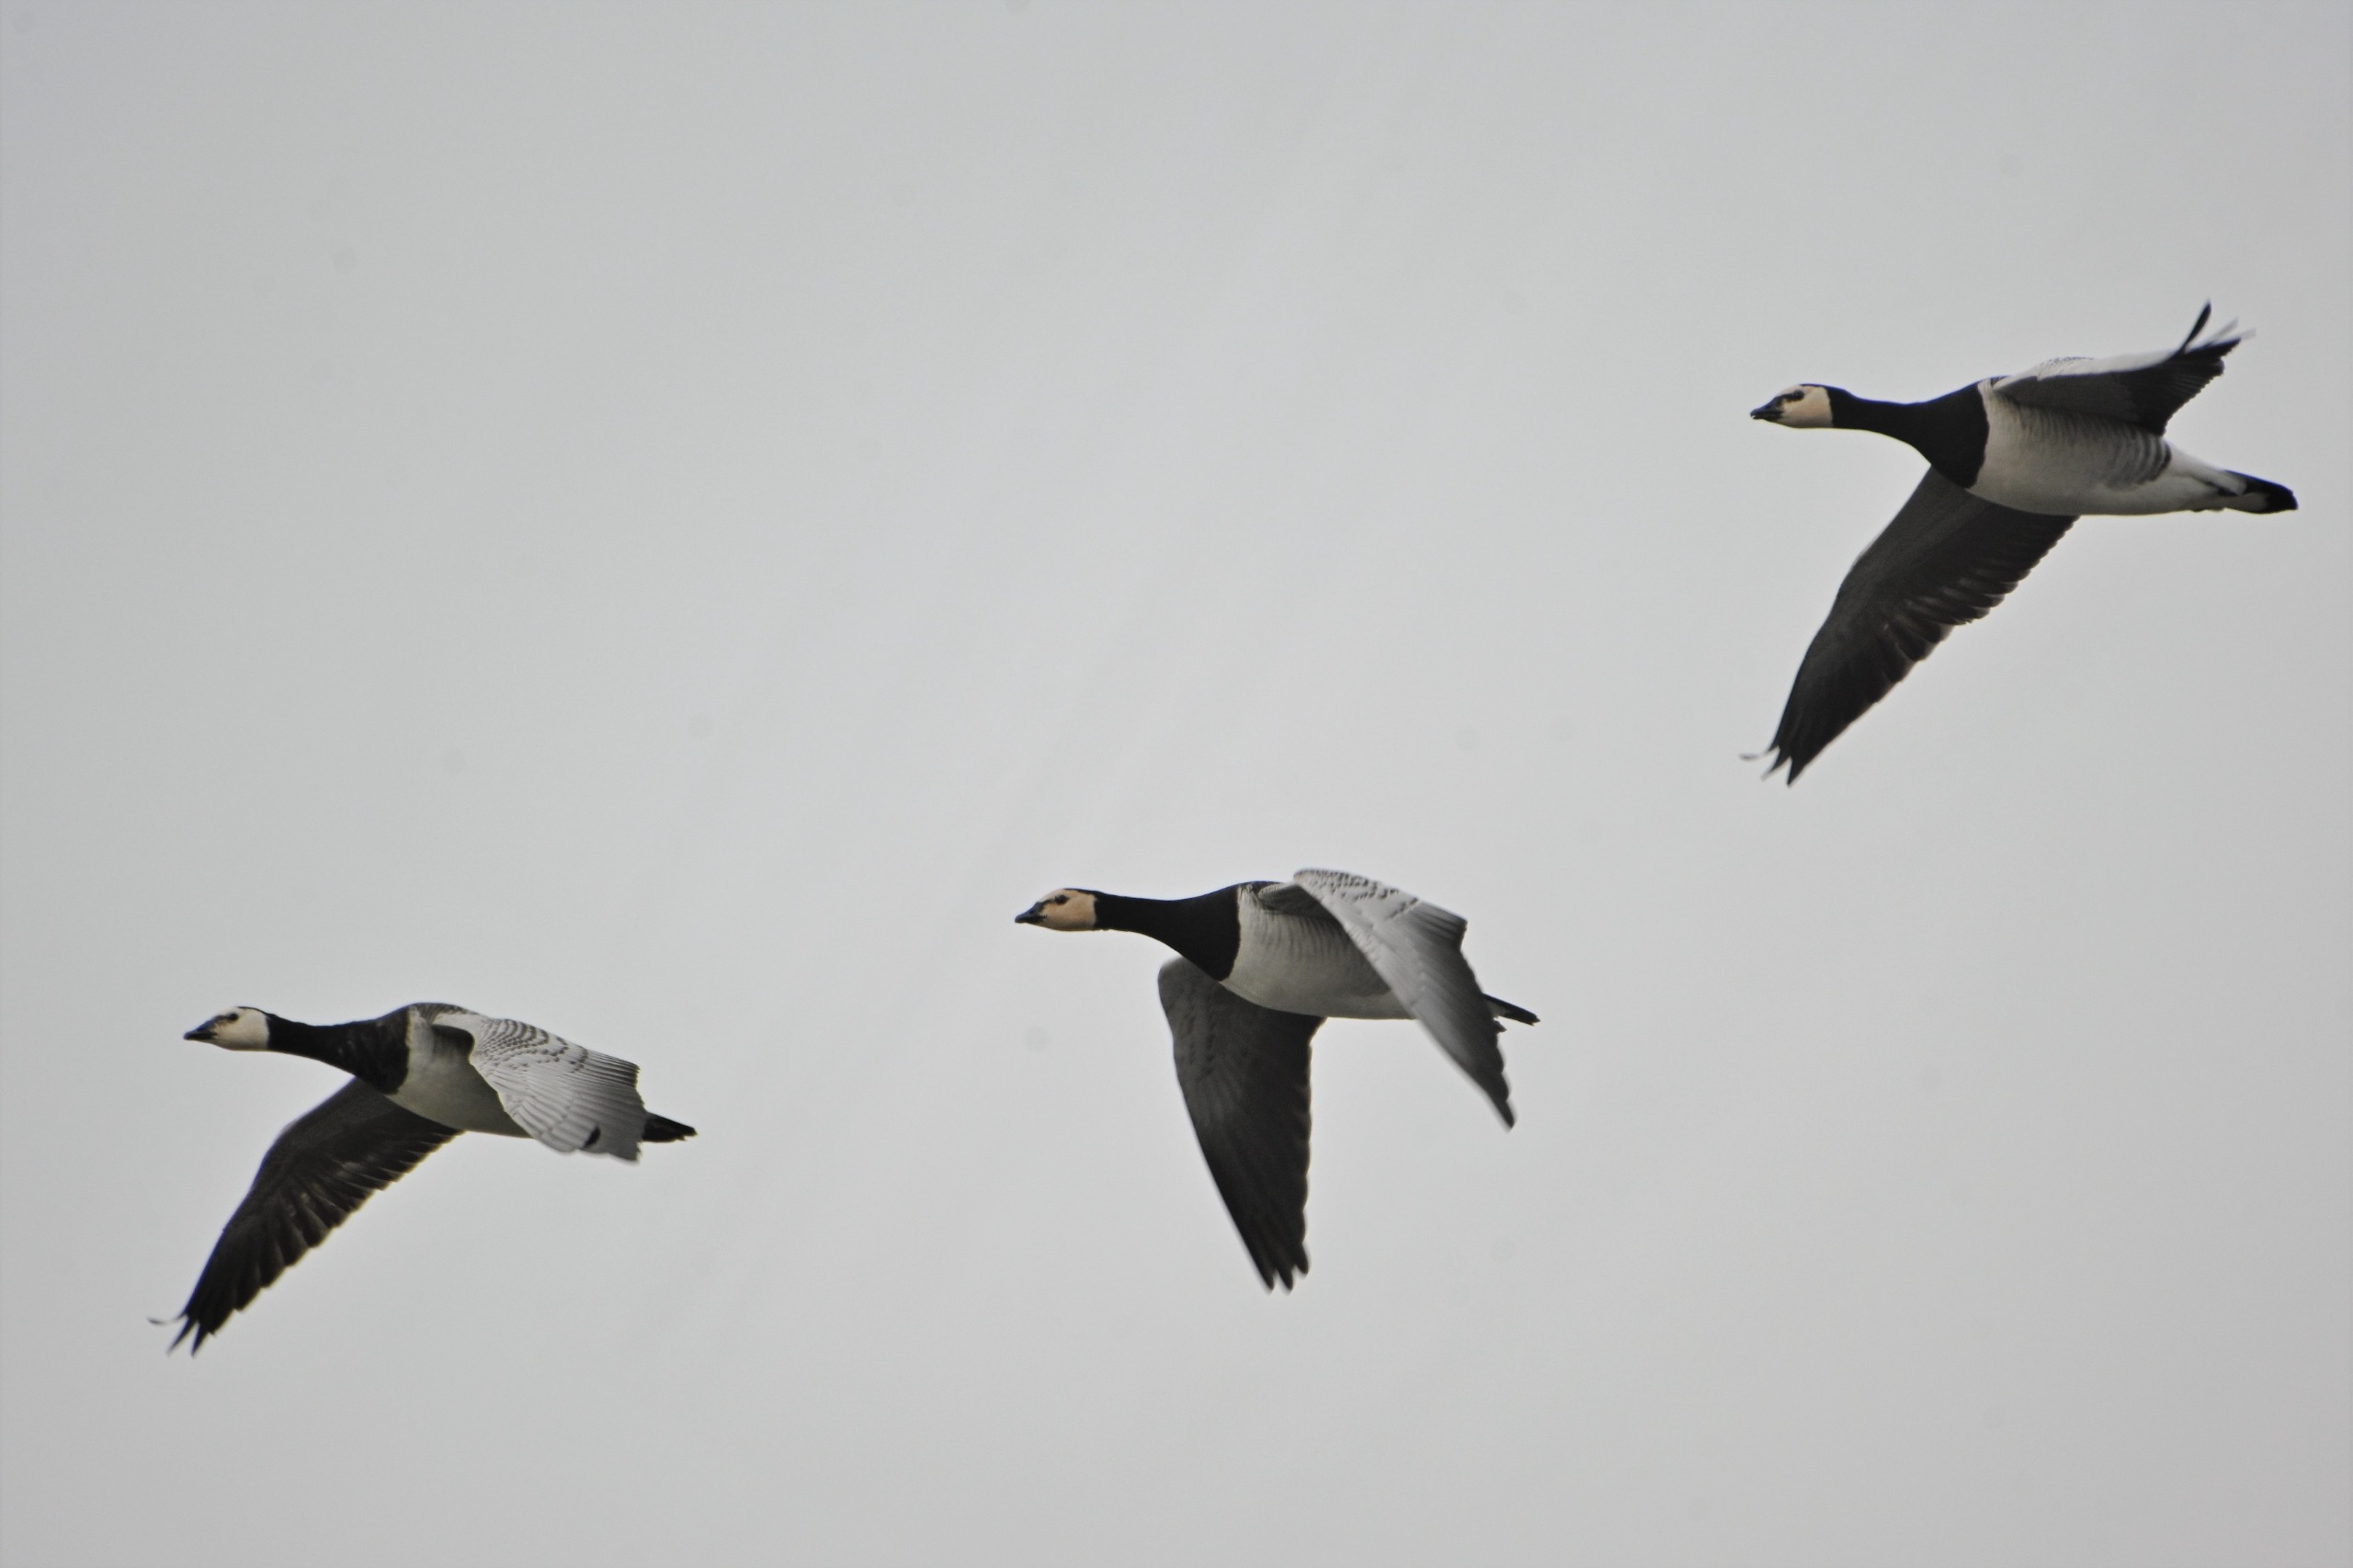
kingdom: Animalia
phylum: Chordata
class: Aves
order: Anseriformes
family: Anatidae
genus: Branta
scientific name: Branta leucopsis
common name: Bramgås
